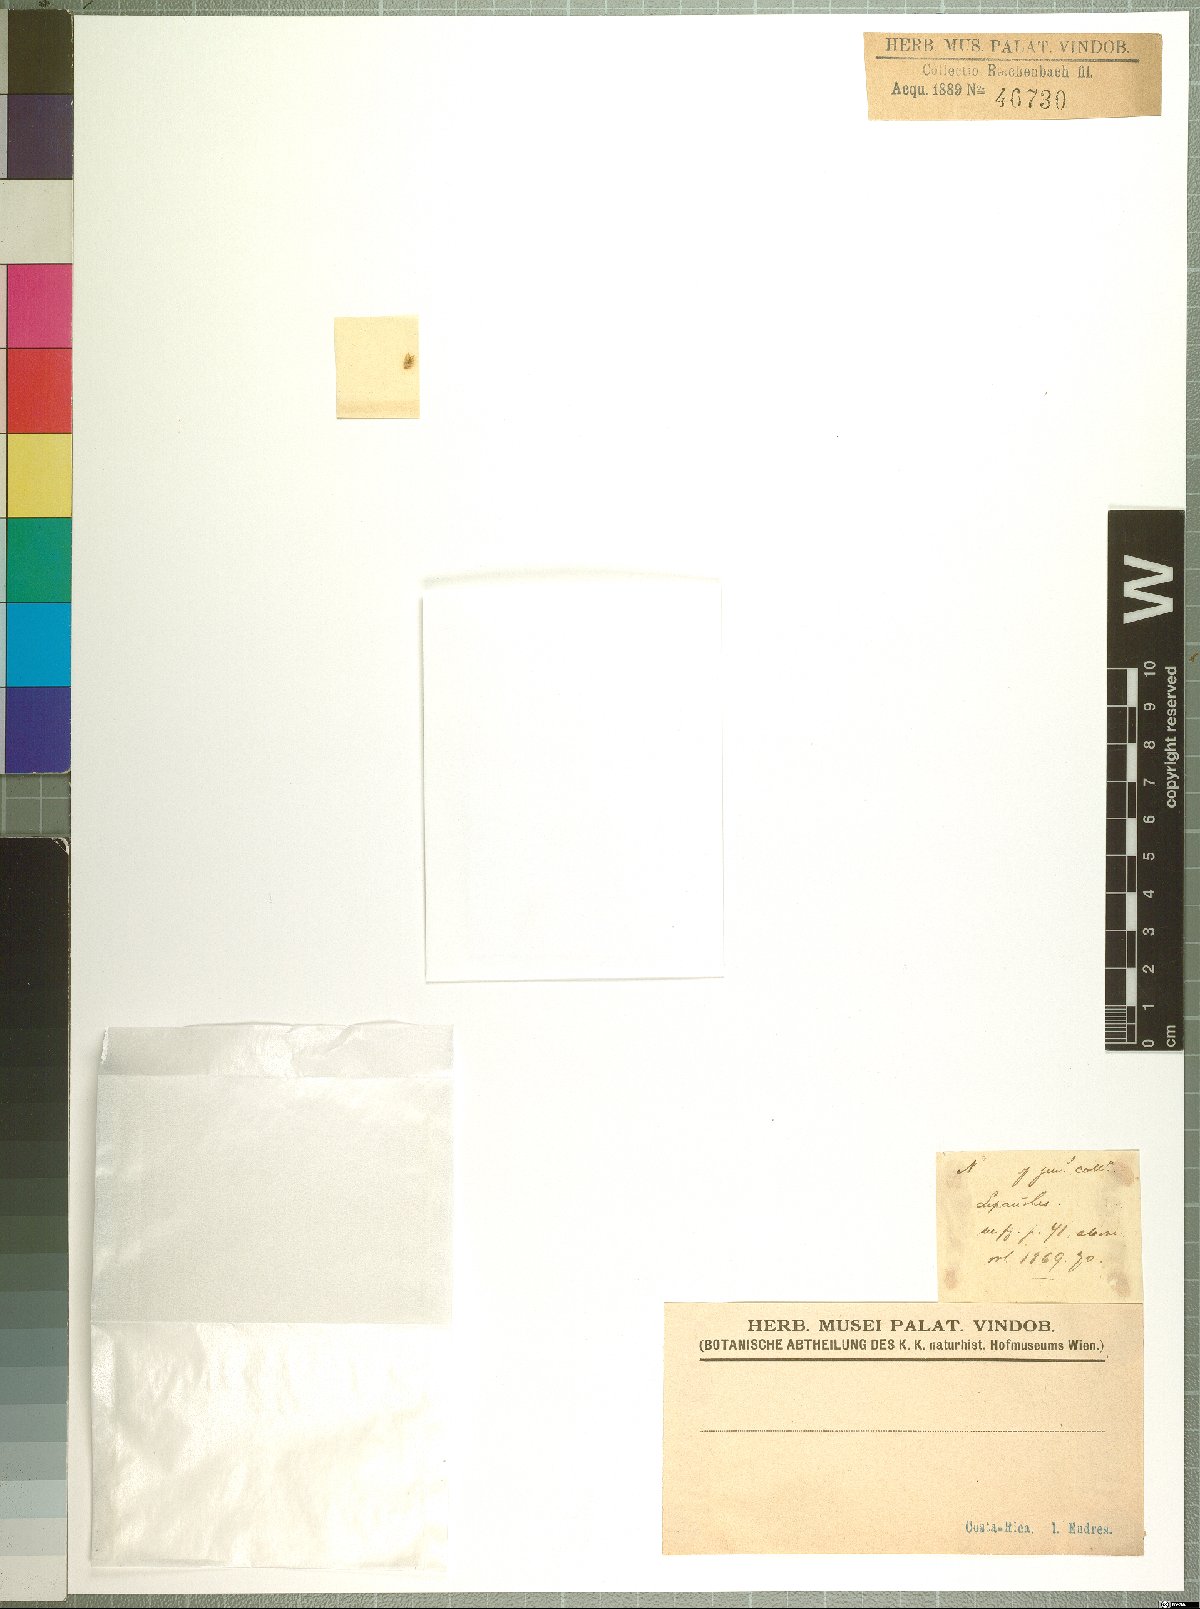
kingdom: Plantae
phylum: Tracheophyta
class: Liliopsida
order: Asparagales
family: Orchidaceae
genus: Lepanthes
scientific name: Lepanthes
